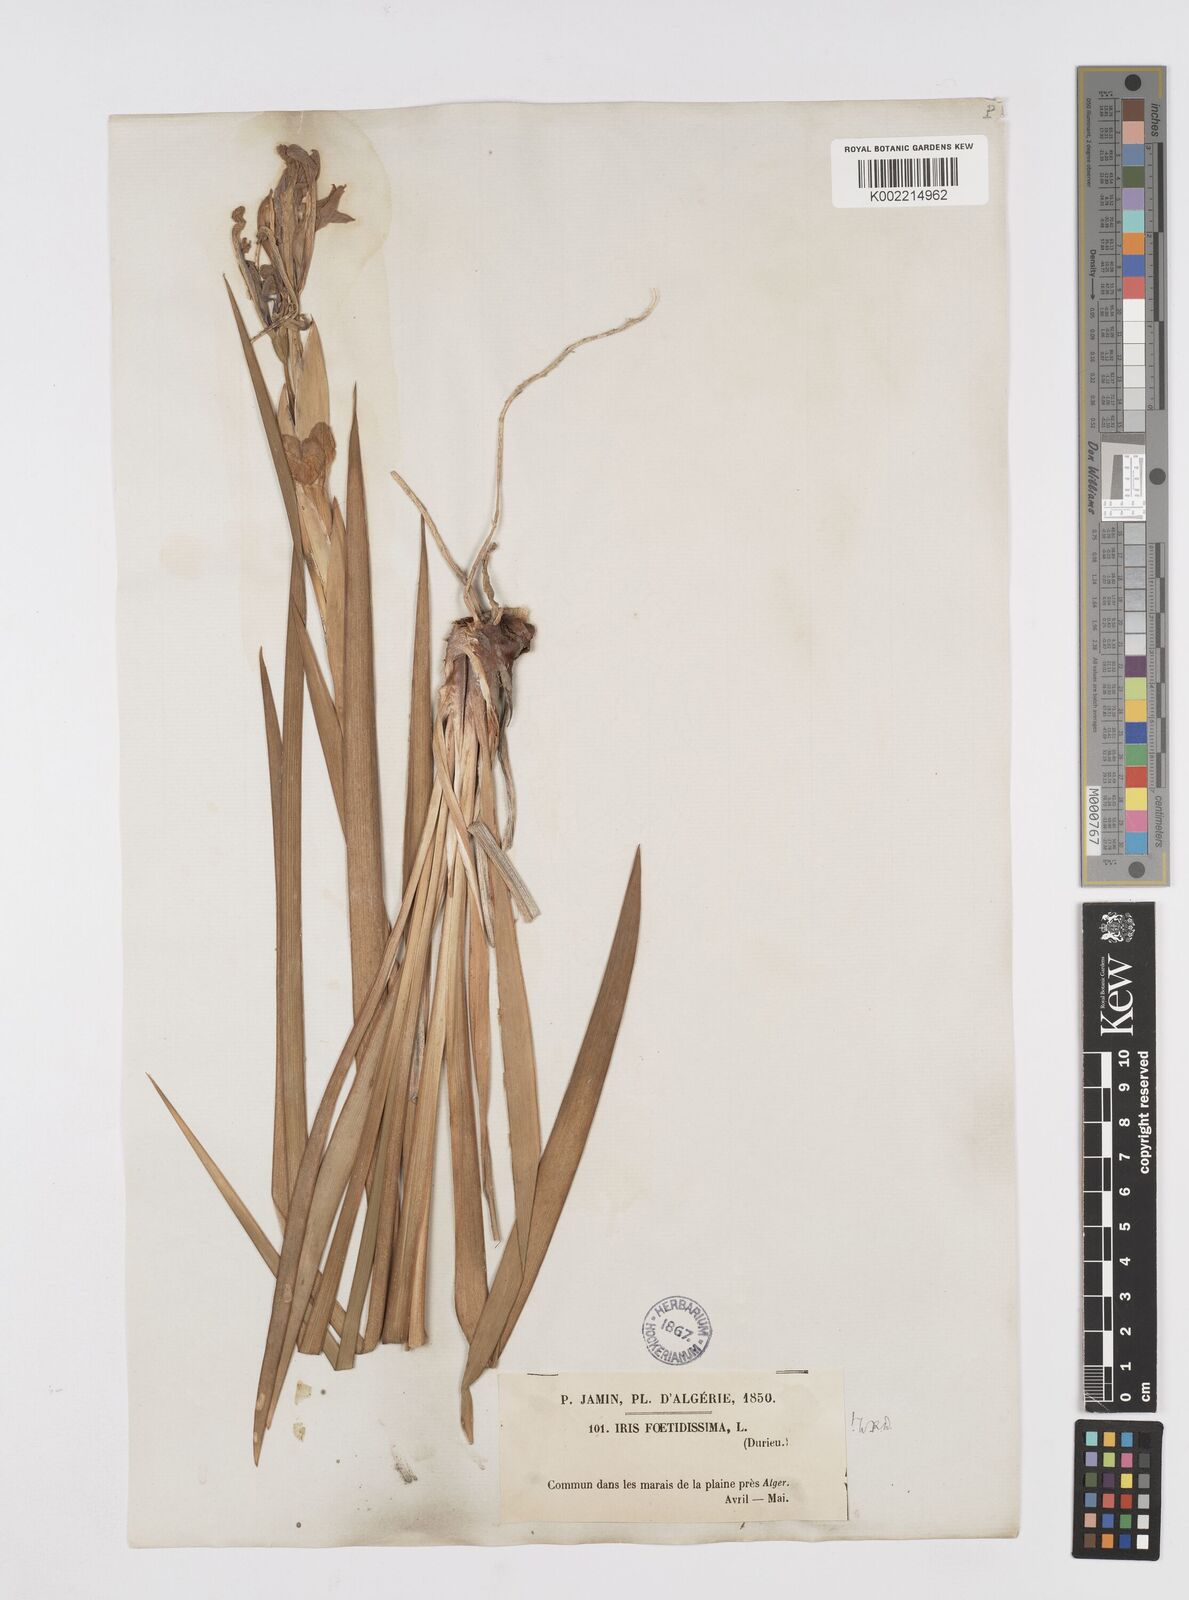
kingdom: Plantae
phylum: Tracheophyta
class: Liliopsida
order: Asparagales
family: Iridaceae
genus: Iris
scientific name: Iris foetidissima
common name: Stinking iris
